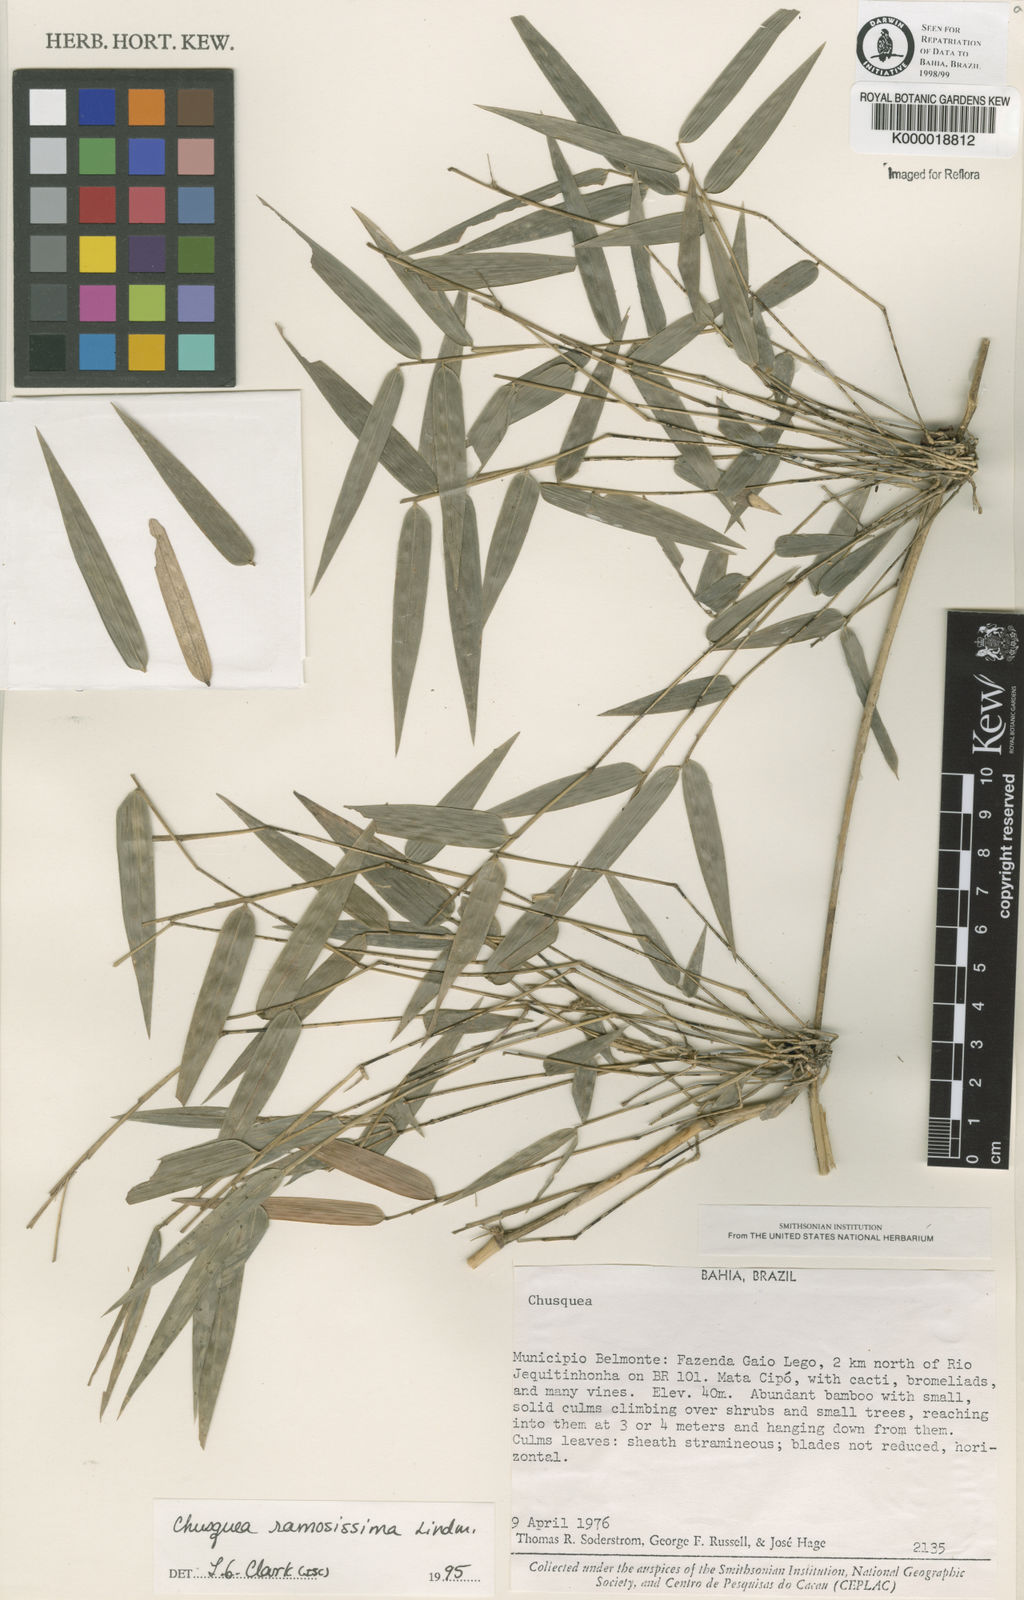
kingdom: Plantae
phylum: Tracheophyta
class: Liliopsida
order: Poales
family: Poaceae
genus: Chusquea
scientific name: Chusquea ramosissima
